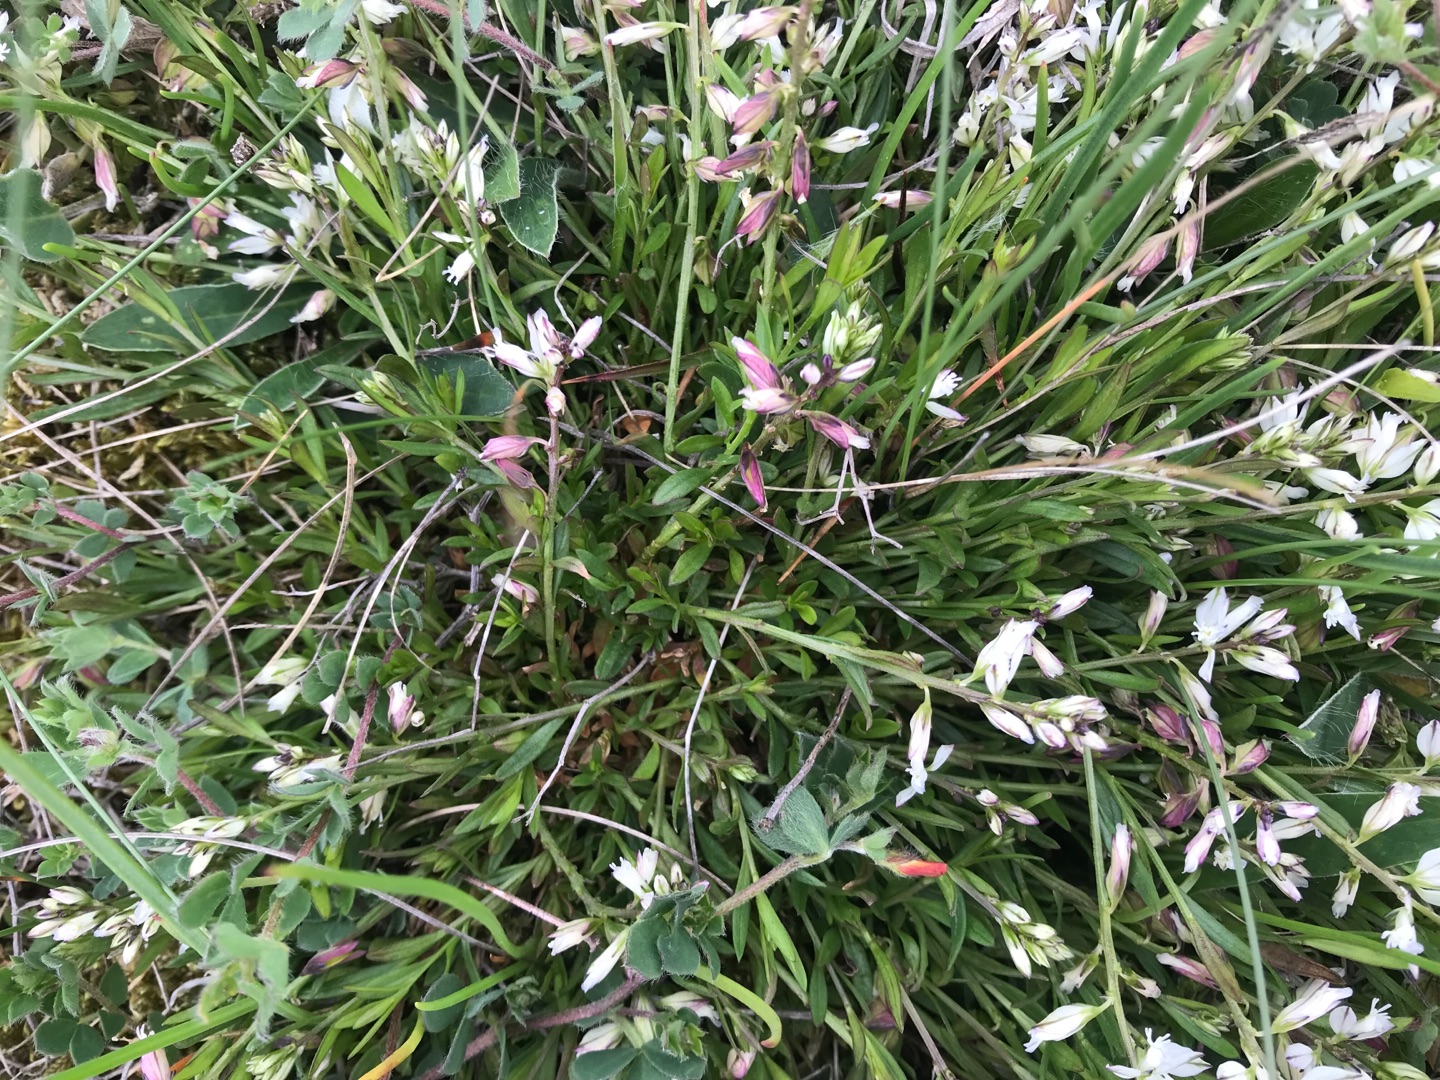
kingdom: Plantae
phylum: Tracheophyta
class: Magnoliopsida
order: Fabales
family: Polygalaceae
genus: Polygala
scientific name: Polygala vulgaris
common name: Almindelig mælkeurt
